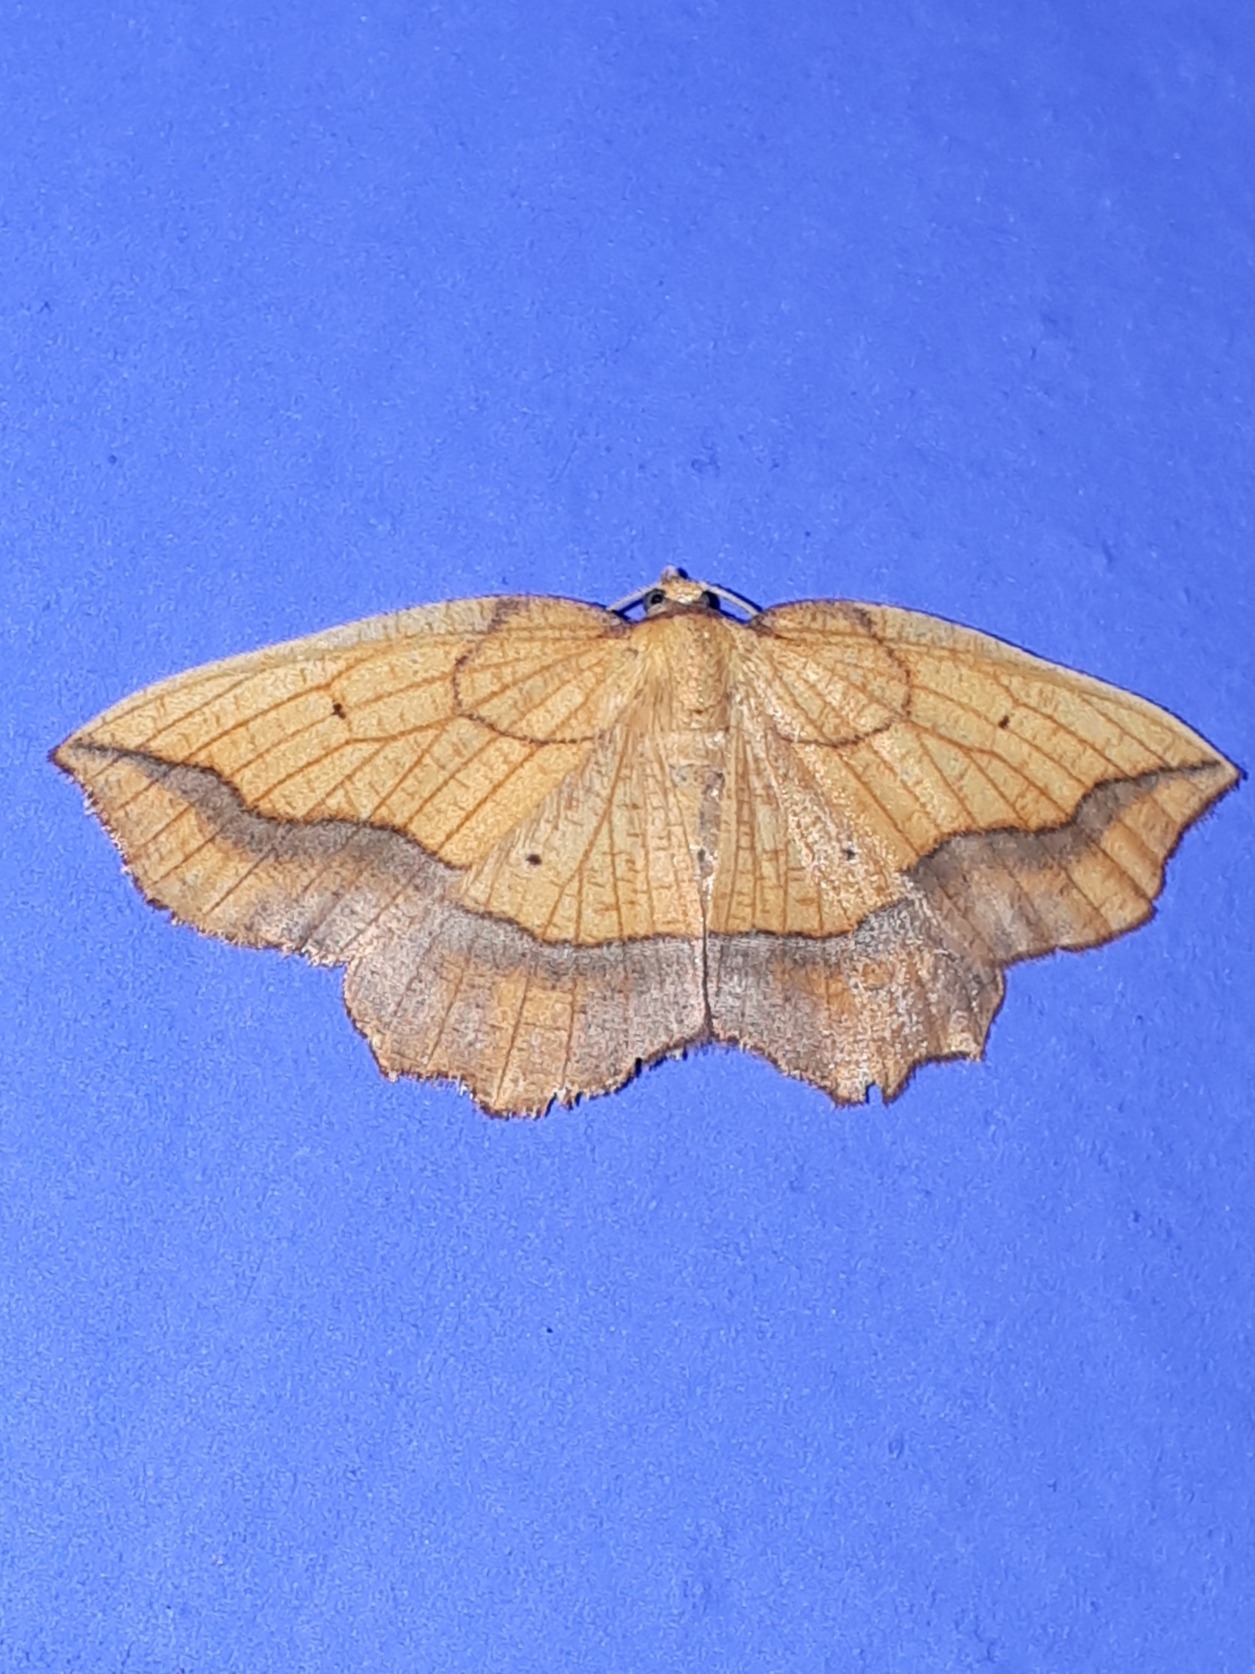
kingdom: Animalia
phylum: Arthropoda
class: Insecta
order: Lepidoptera
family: Geometridae
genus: Epione
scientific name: Epione repandaria
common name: Skråbåndet spidsmåler
